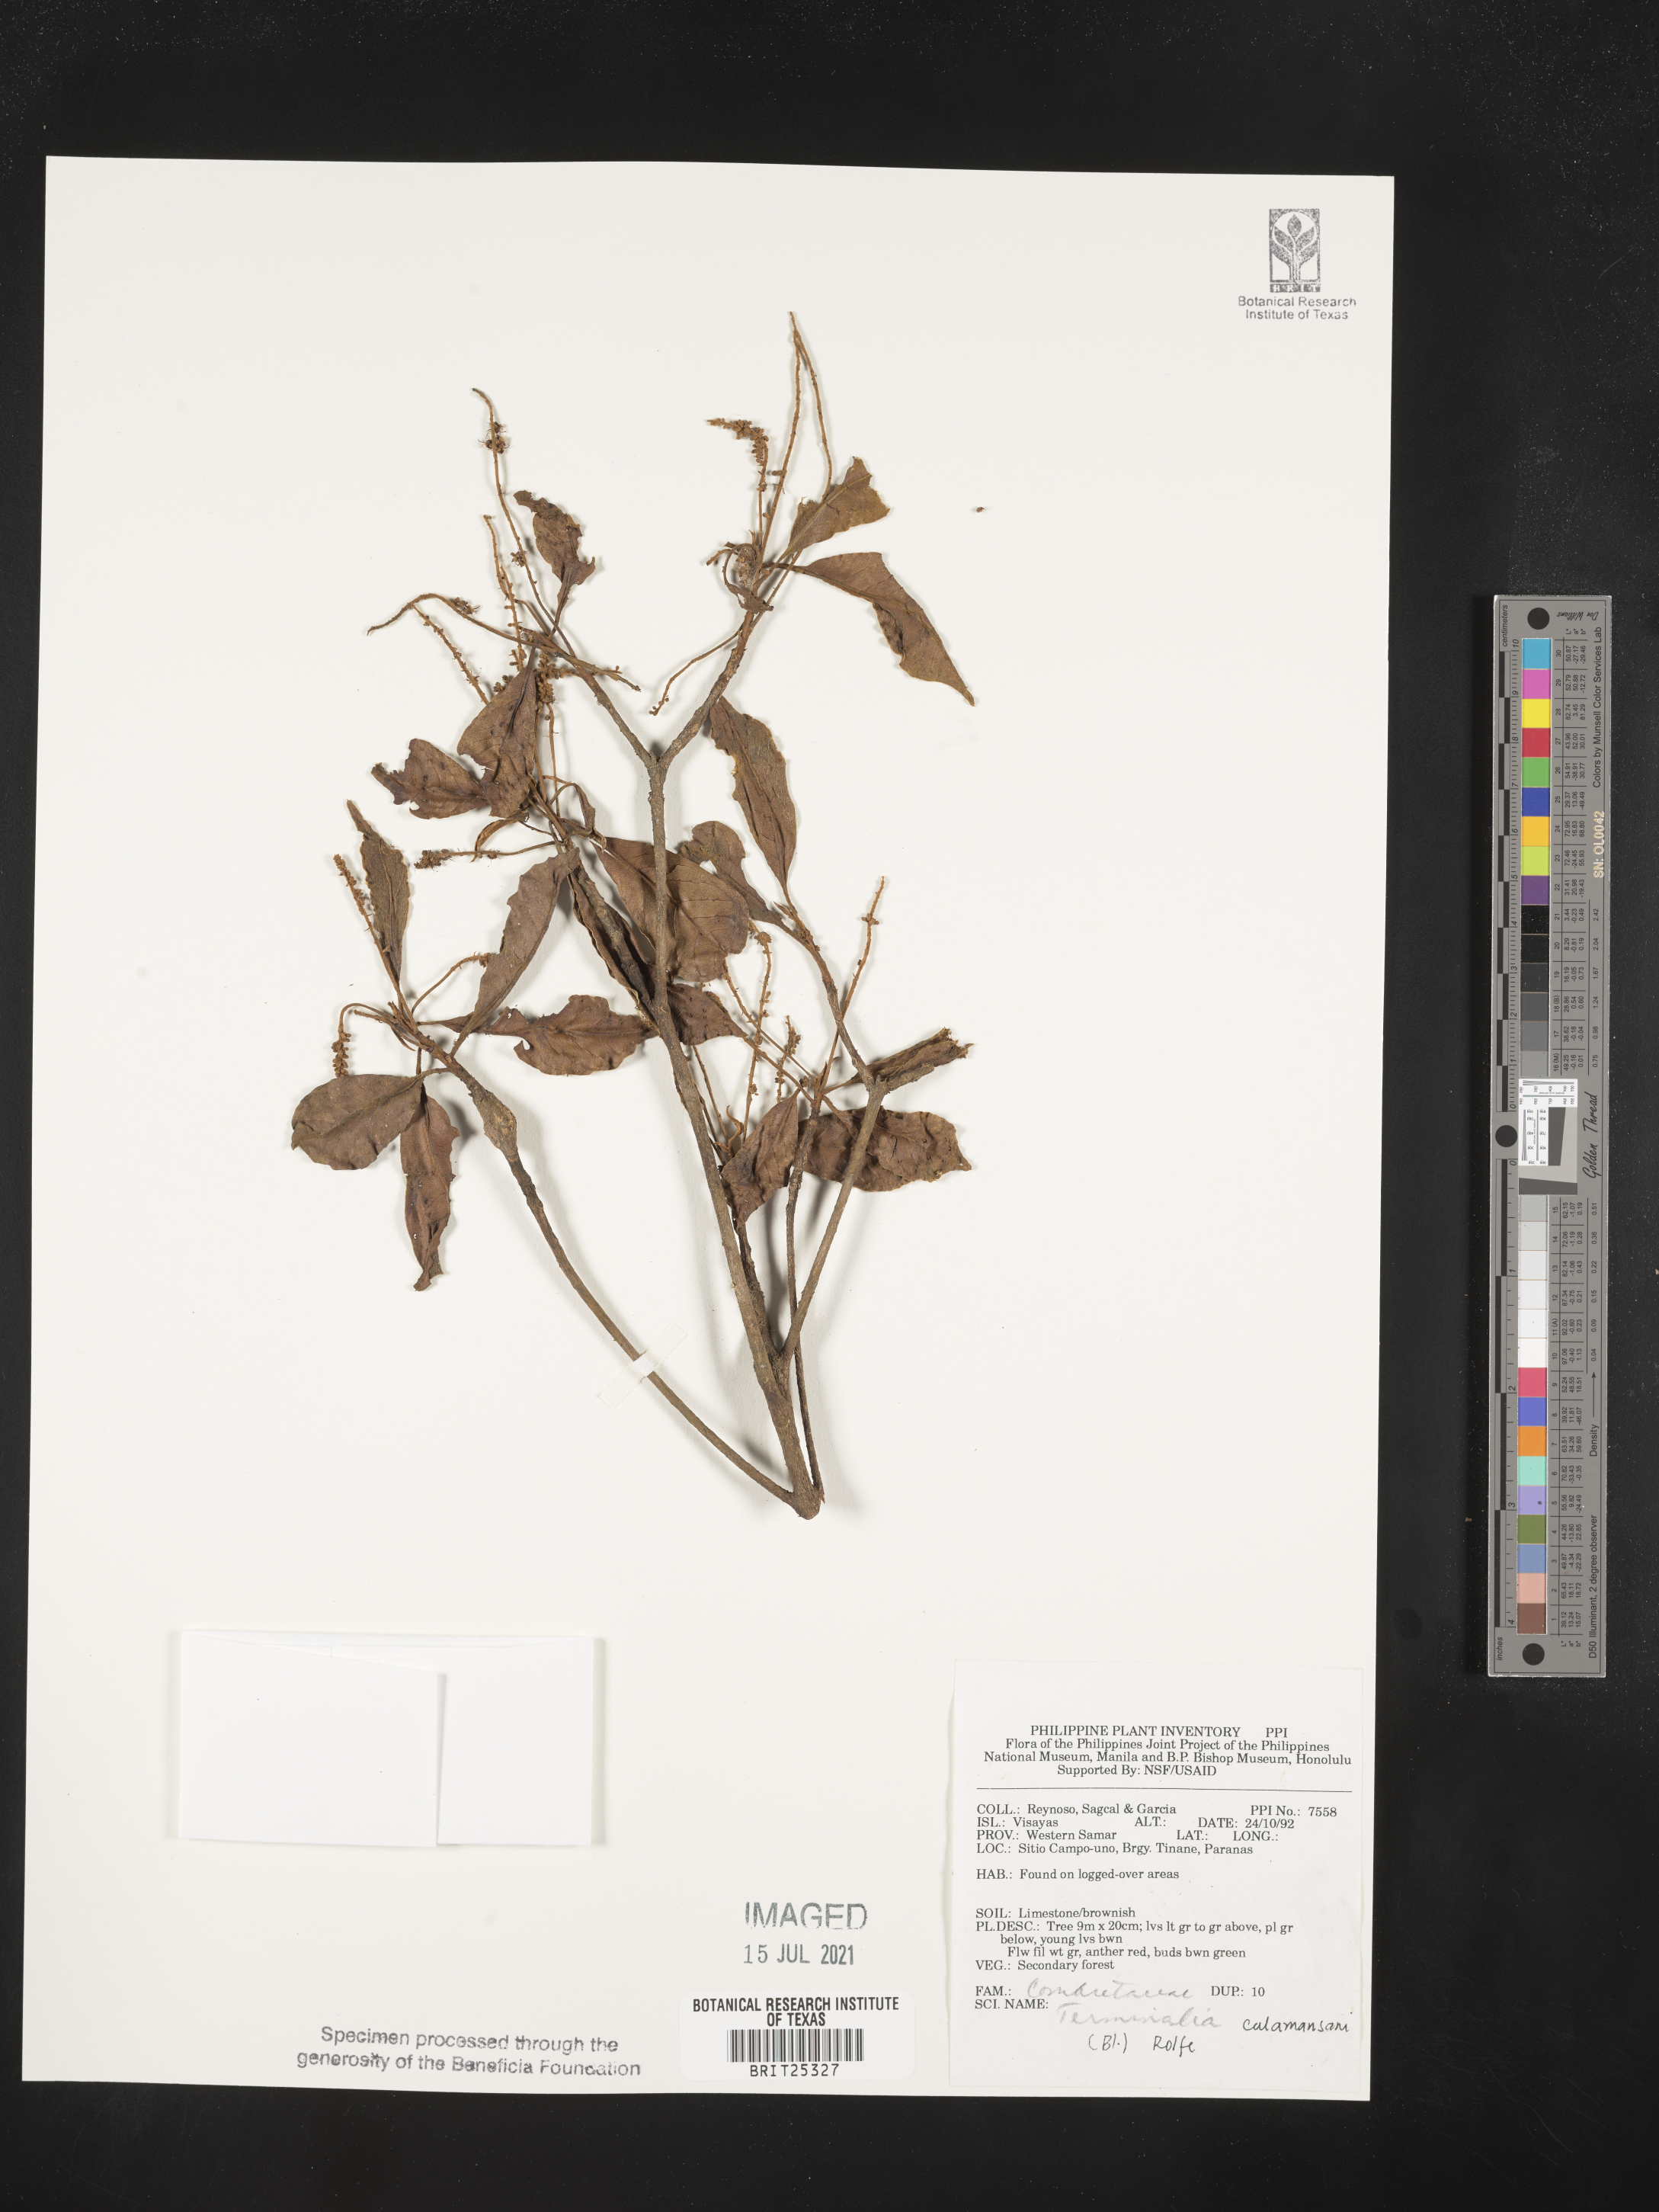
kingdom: Plantae
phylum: Tracheophyta
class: Magnoliopsida
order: Myrtales
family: Combretaceae
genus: Terminalia
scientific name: Terminalia calamansanai
